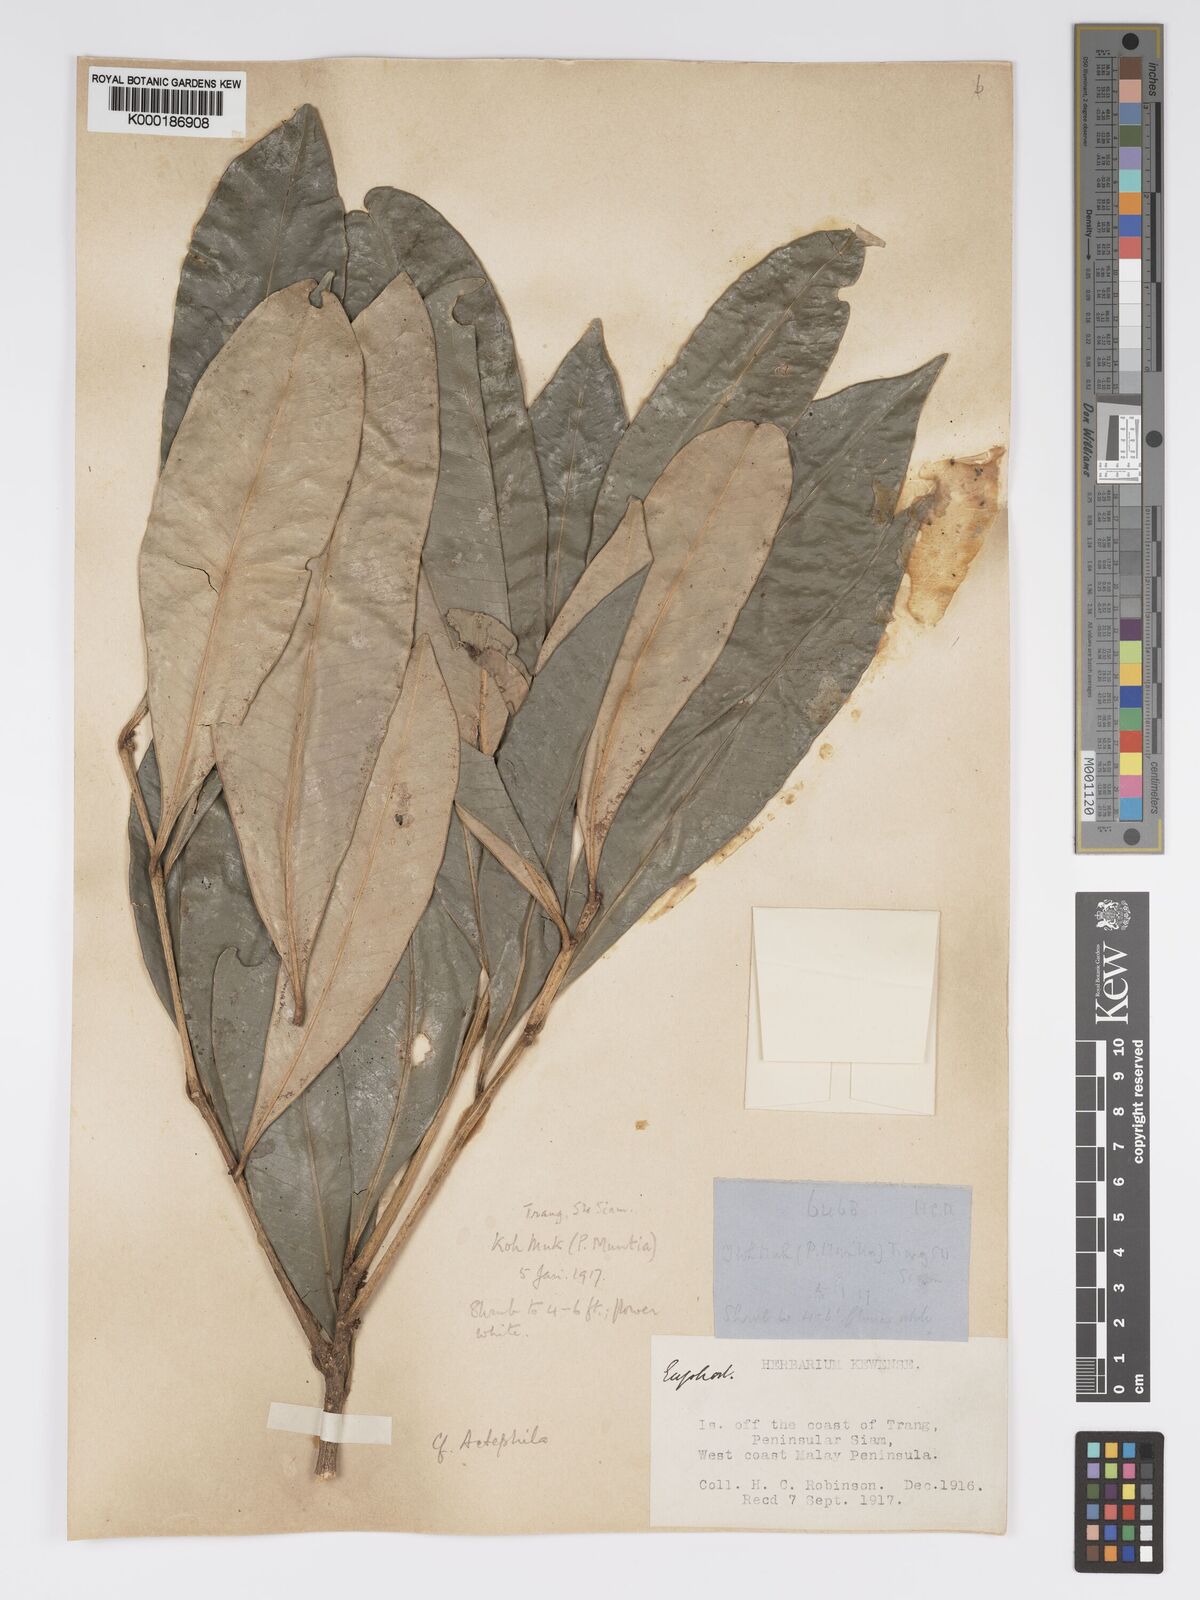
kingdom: Plantae
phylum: Tracheophyta
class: Magnoliopsida
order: Malpighiales
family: Phyllanthaceae
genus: Actephila
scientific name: Actephila
